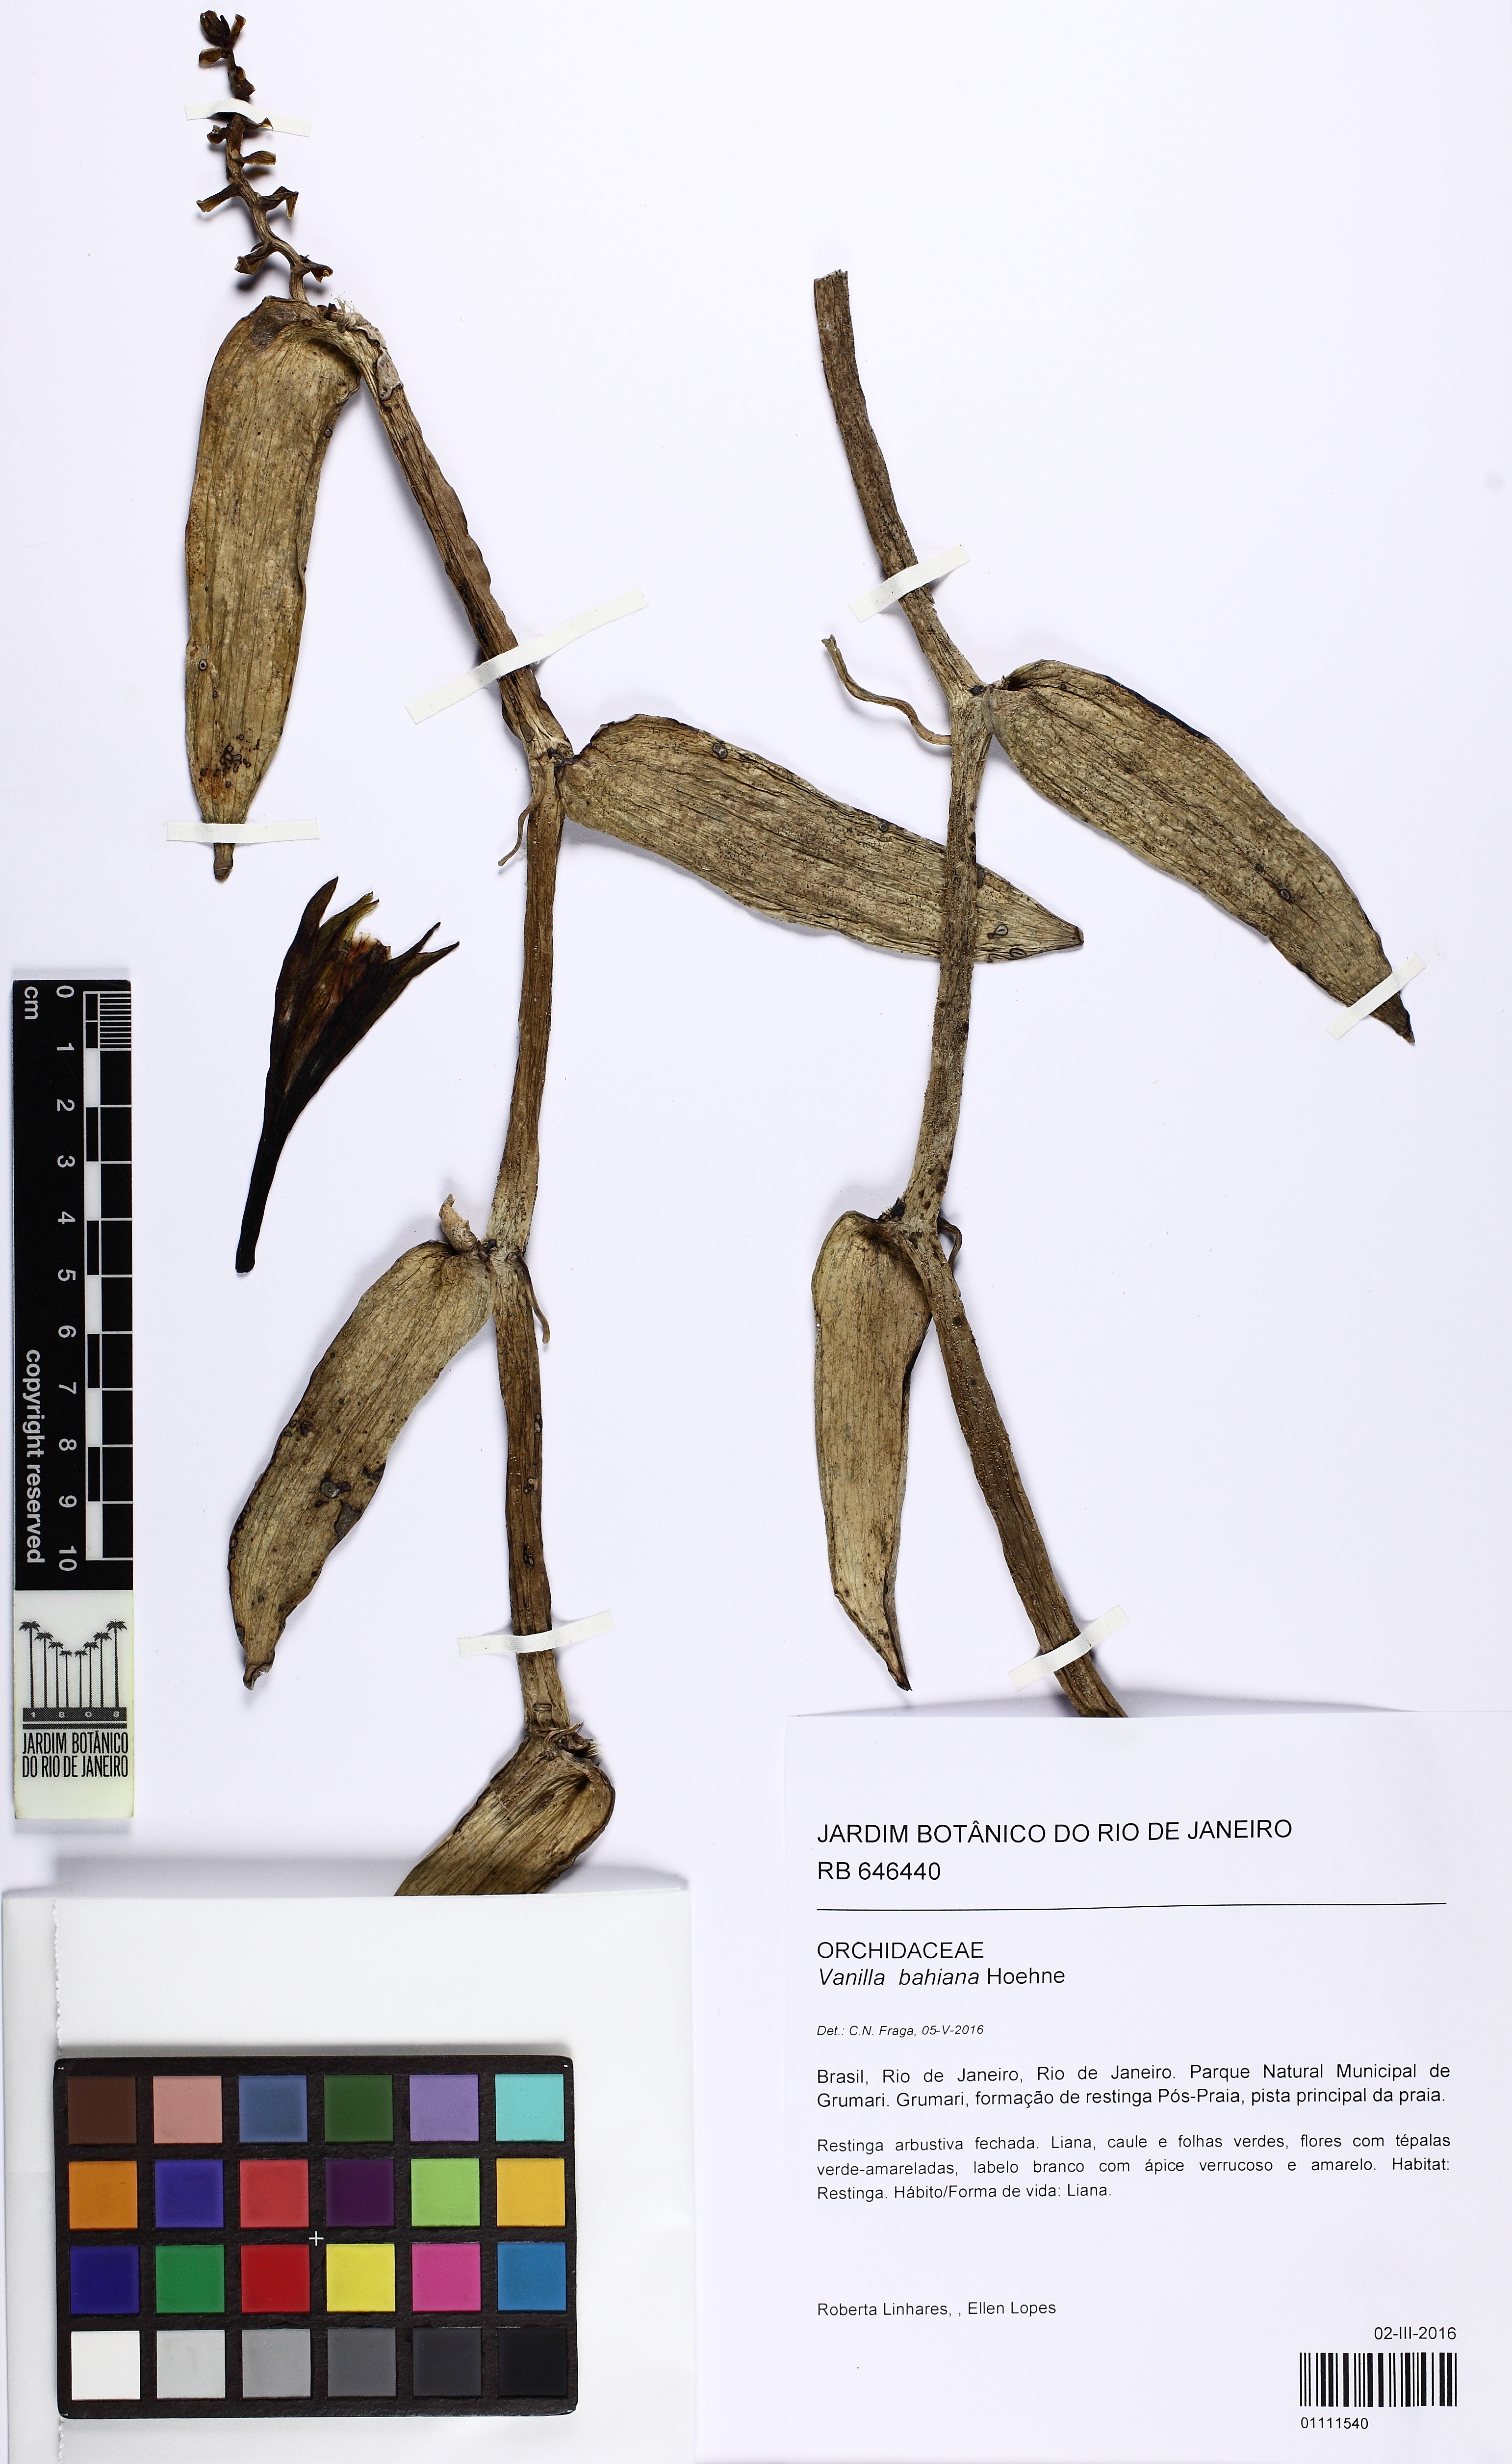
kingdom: Plantae
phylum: Tracheophyta
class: Liliopsida
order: Asparagales
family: Orchidaceae
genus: Vanilla
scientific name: Vanilla phaeantha
